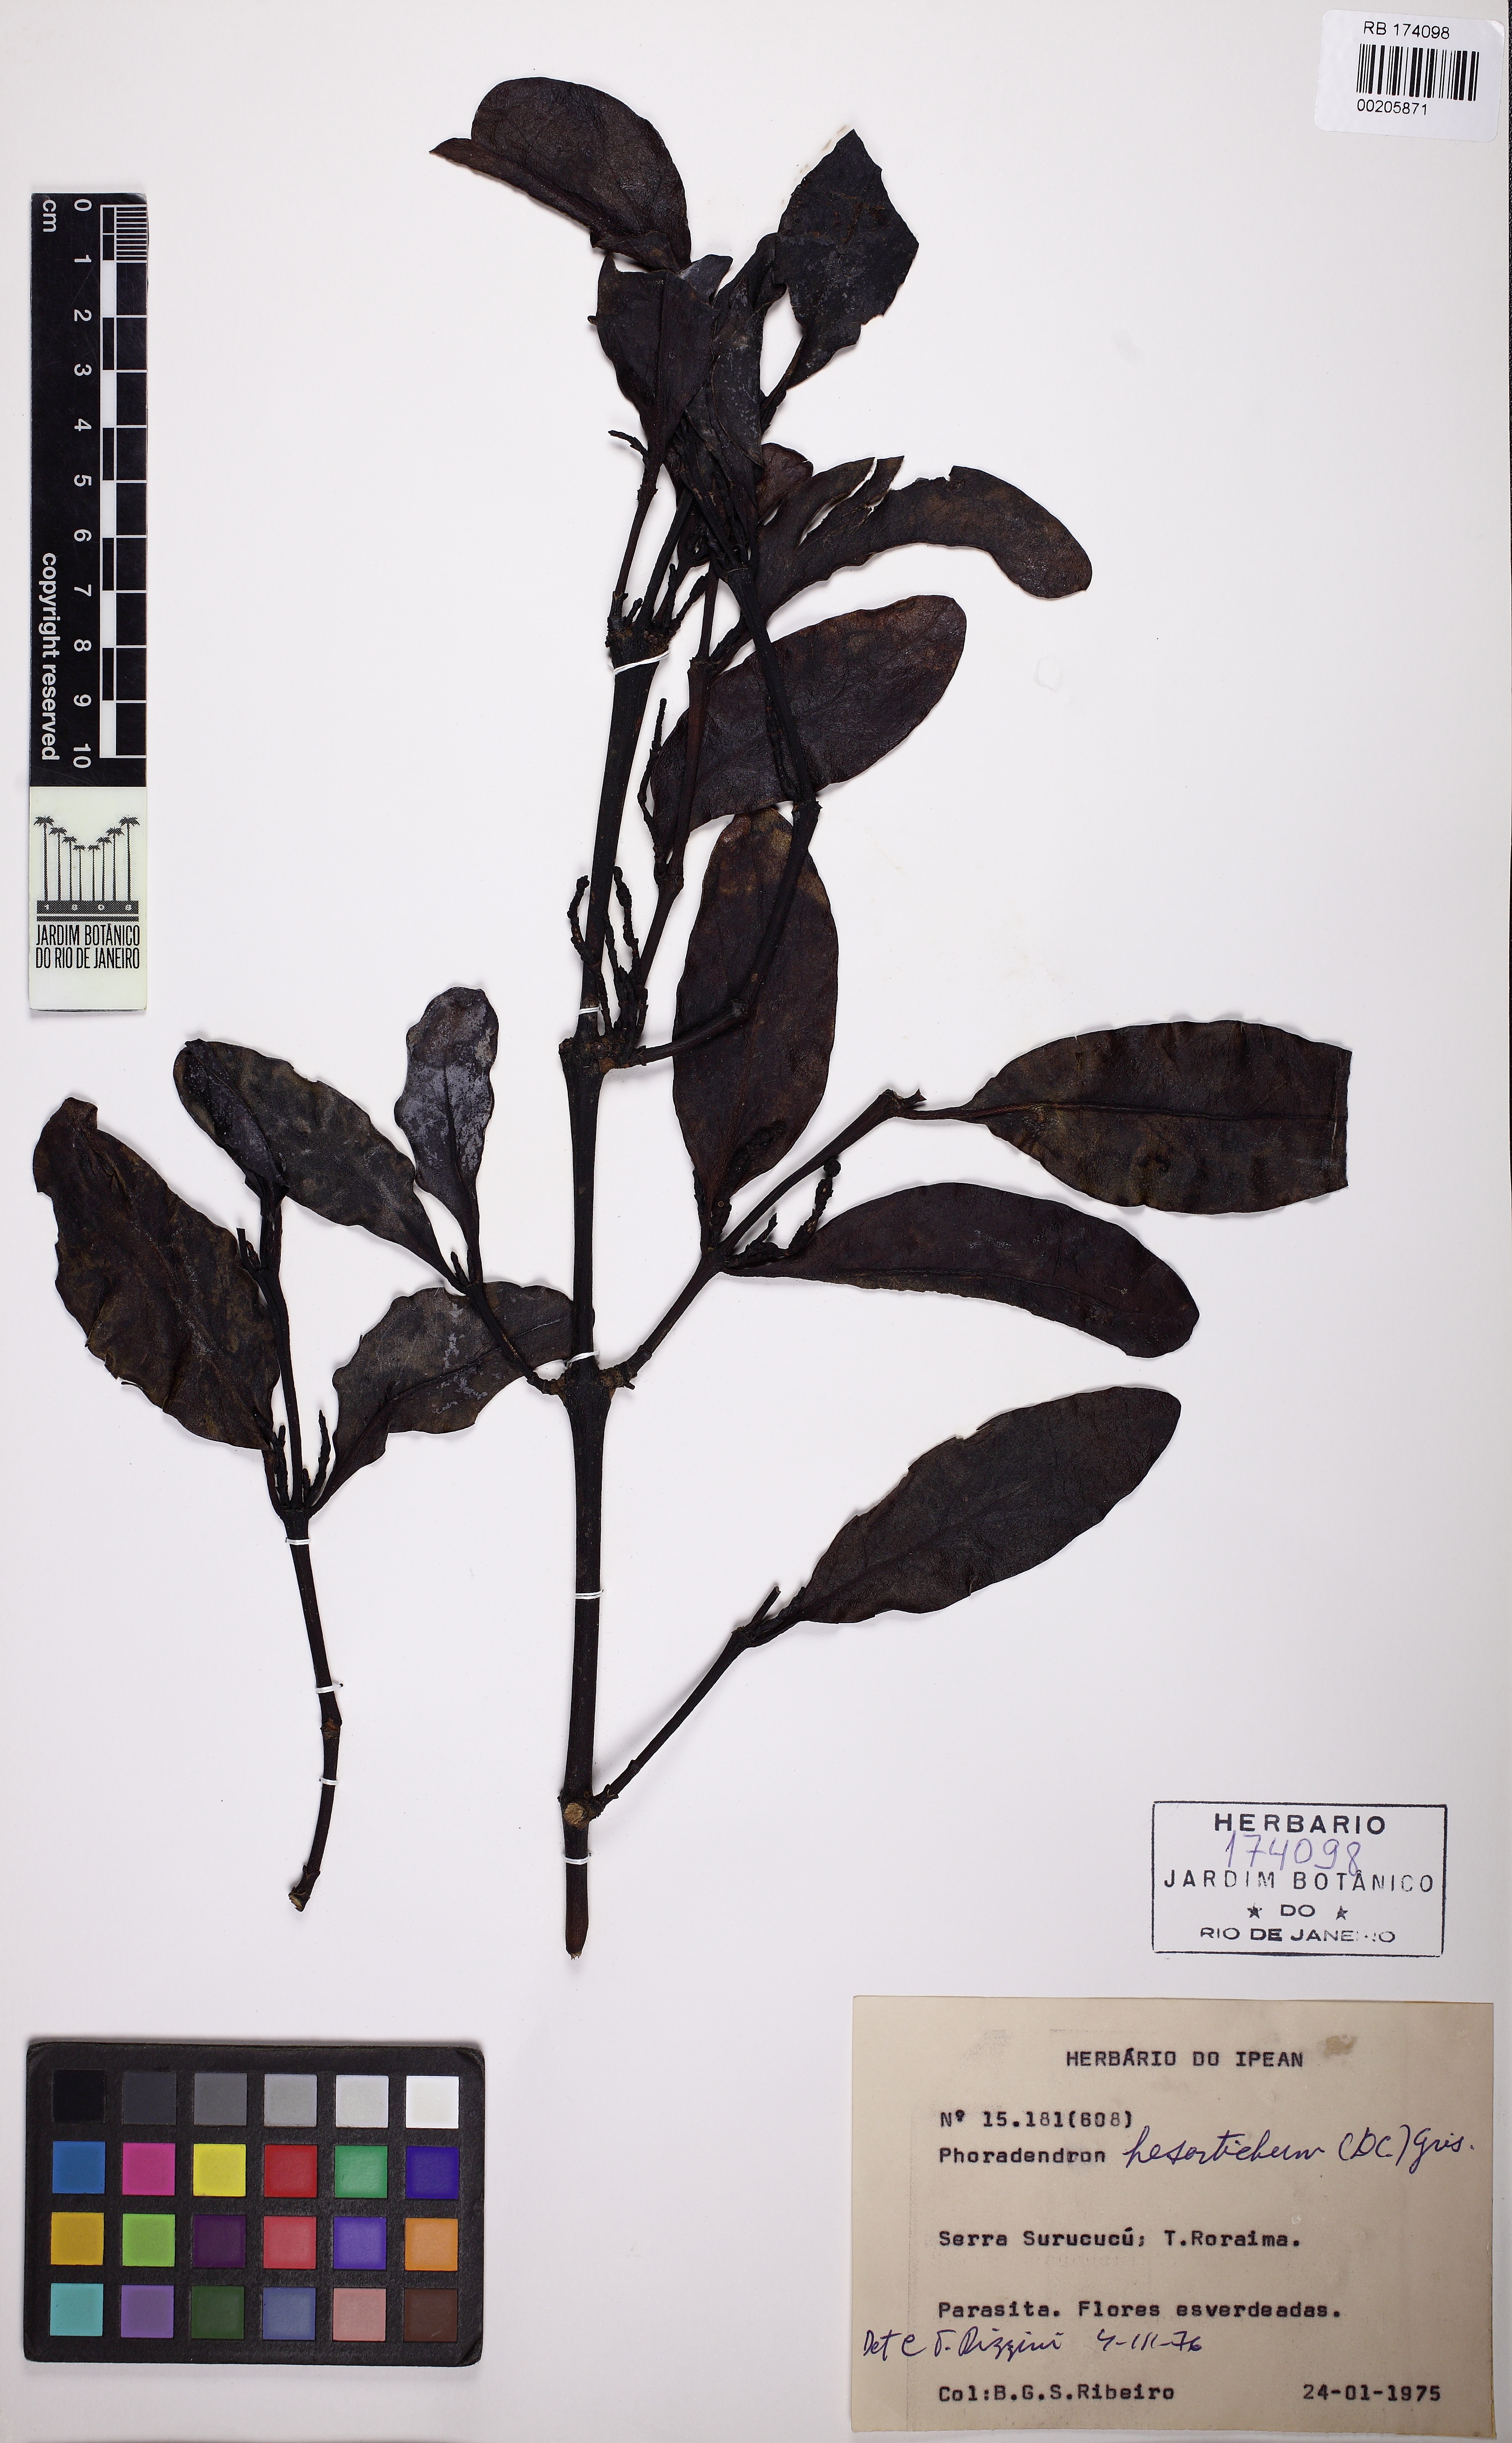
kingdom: Plantae
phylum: Tracheophyta
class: Magnoliopsida
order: Santalales
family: Viscaceae
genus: Phoradendron
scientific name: Phoradendron hexastichum
